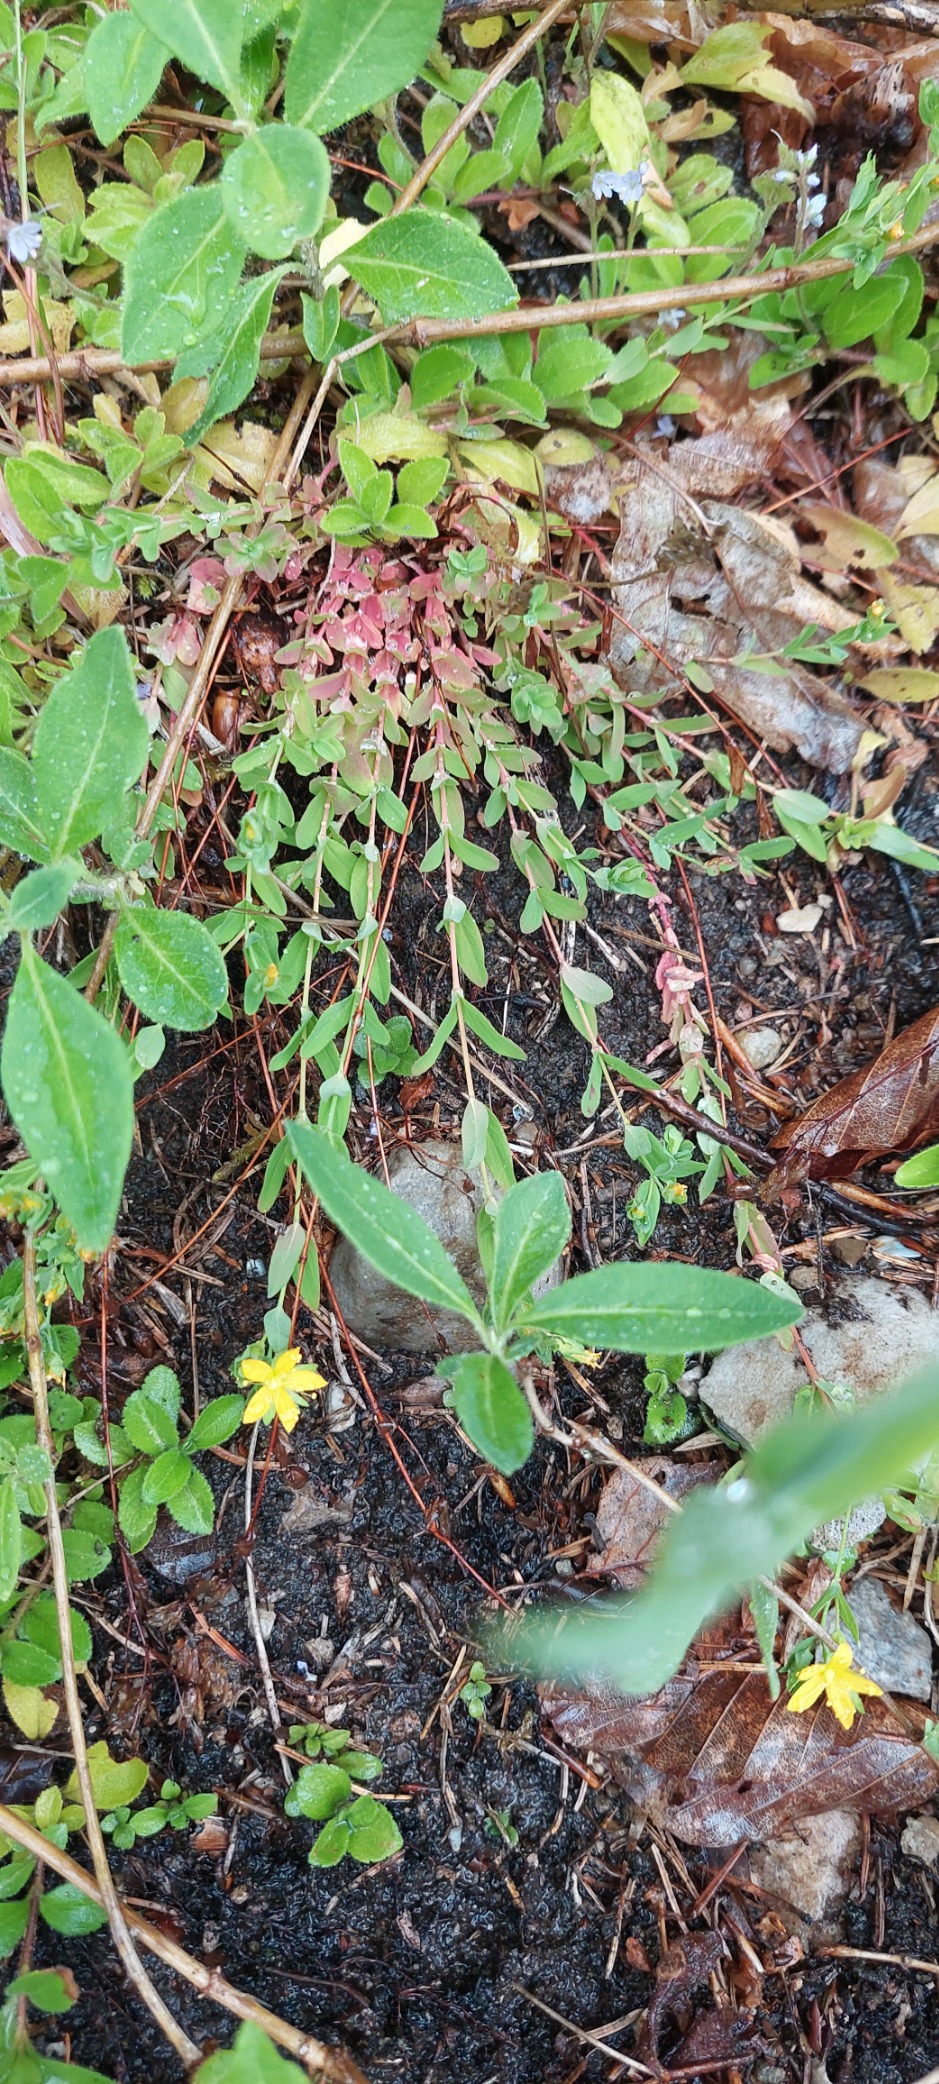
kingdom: Plantae
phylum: Tracheophyta
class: Magnoliopsida
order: Malpighiales
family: Hypericaceae
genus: Hypericum
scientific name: Hypericum humifusum
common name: Dværg-perikon
